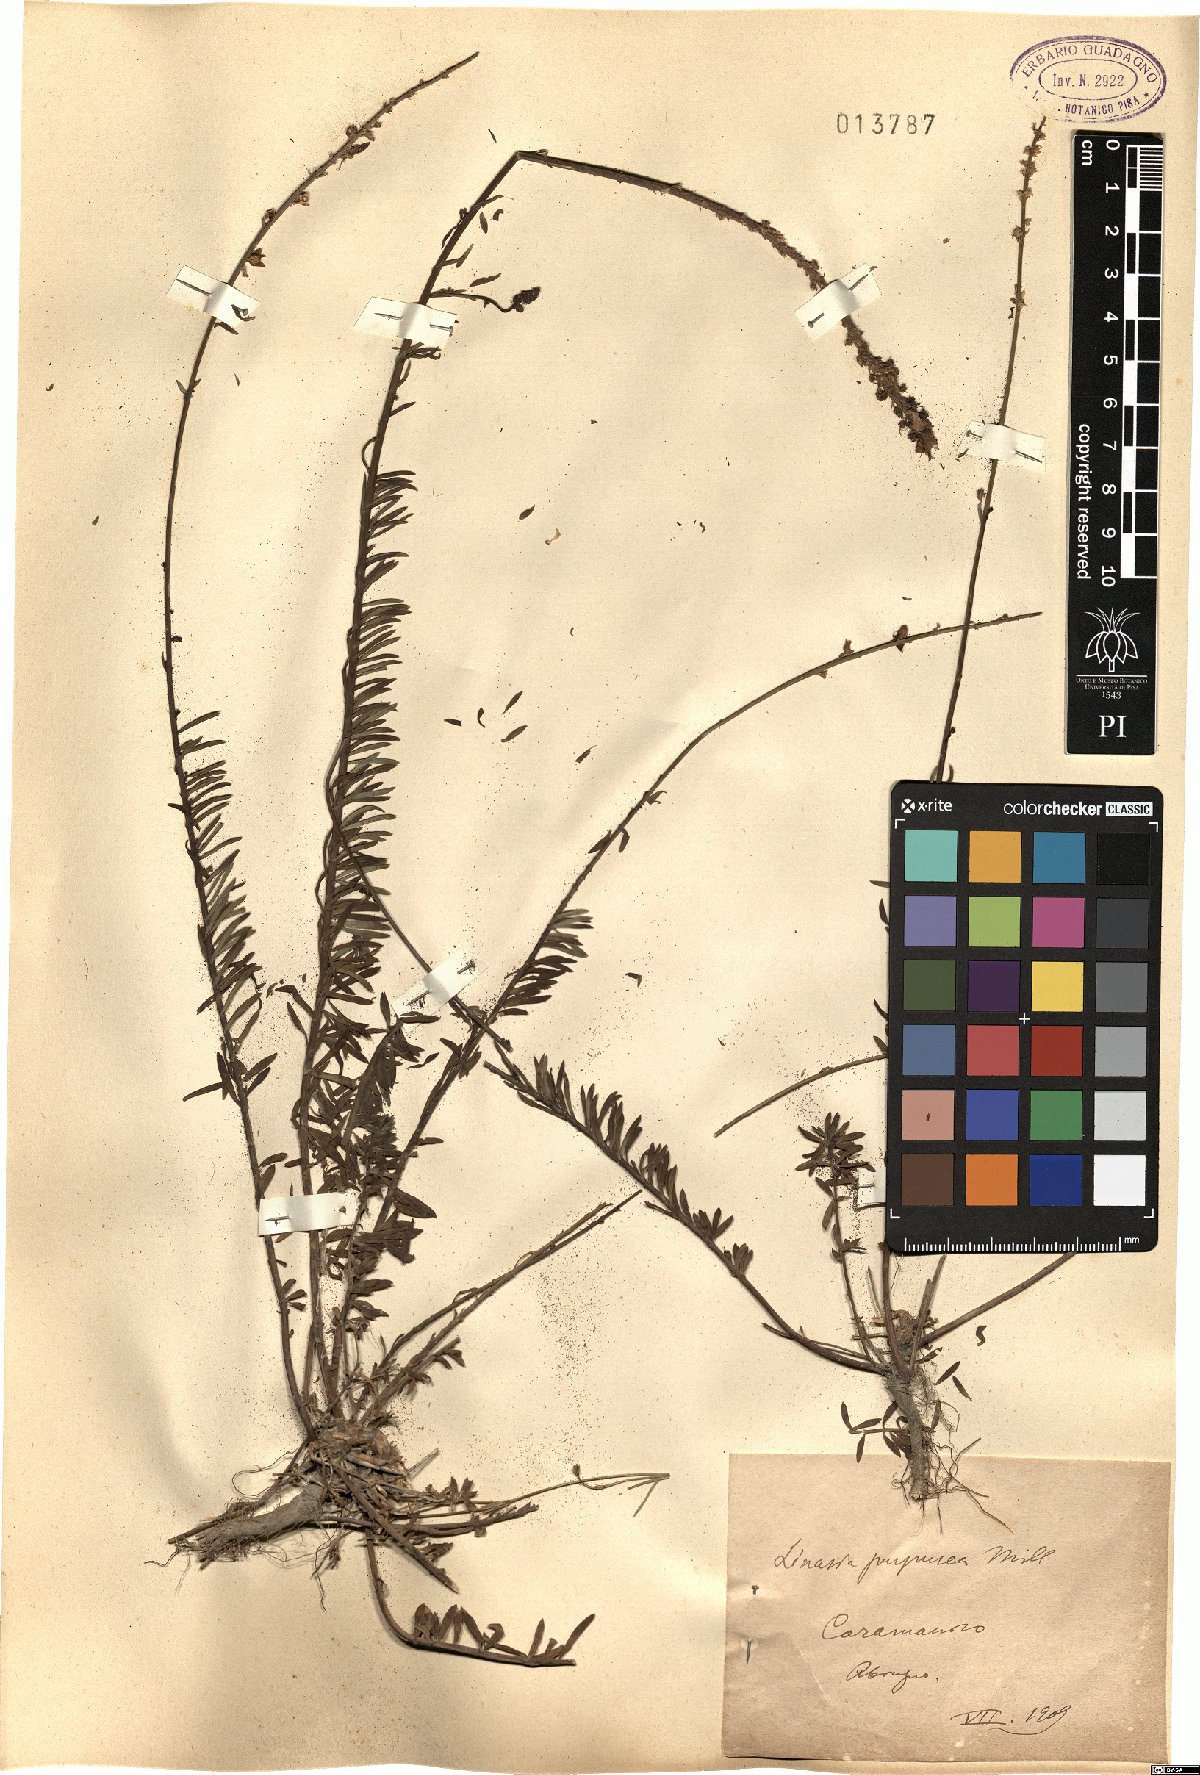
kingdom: Plantae
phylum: Tracheophyta
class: Magnoliopsida
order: Lamiales
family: Plantaginaceae
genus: Linaria
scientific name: Linaria purpurea
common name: Purple toadflax
